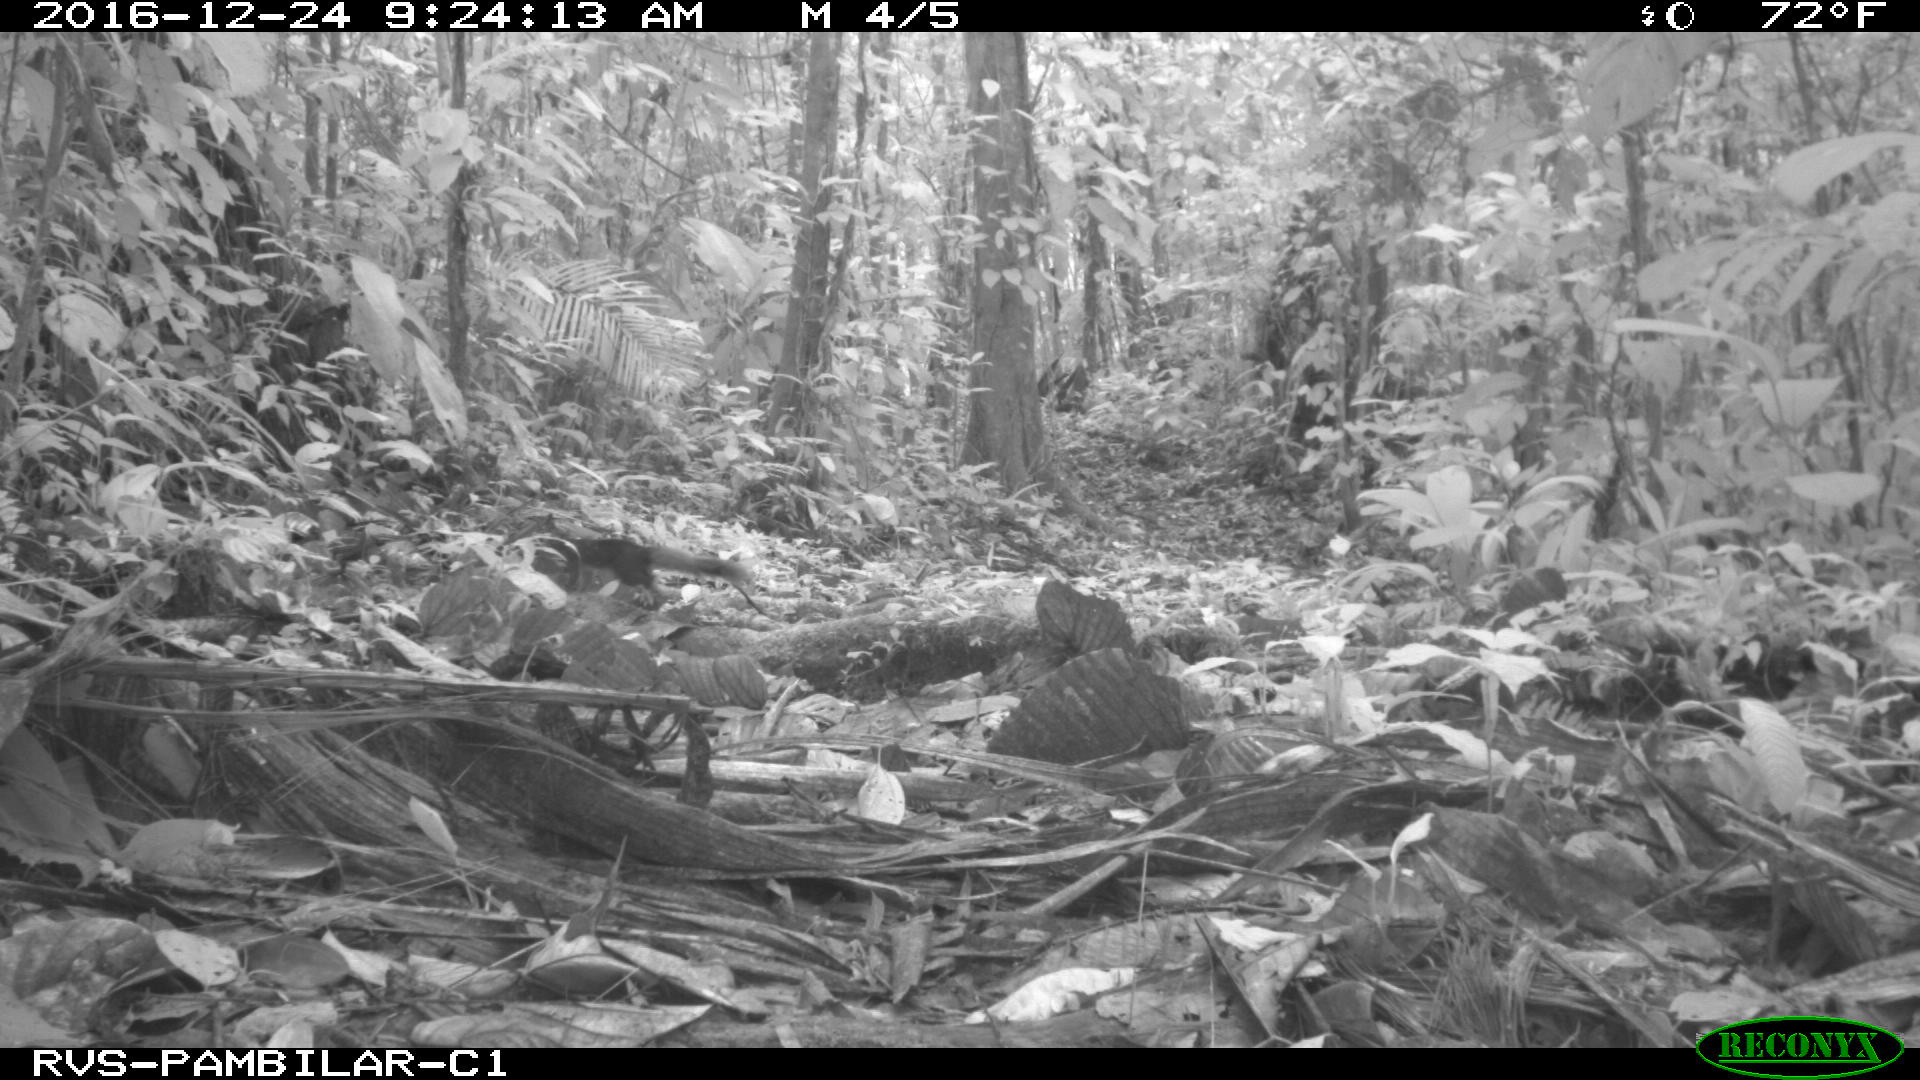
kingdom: Animalia
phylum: Chordata
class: Mammalia
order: Rodentia
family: Sciuridae
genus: Sciurus
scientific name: Sciurus granatensis
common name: Red-tailed squirrel
